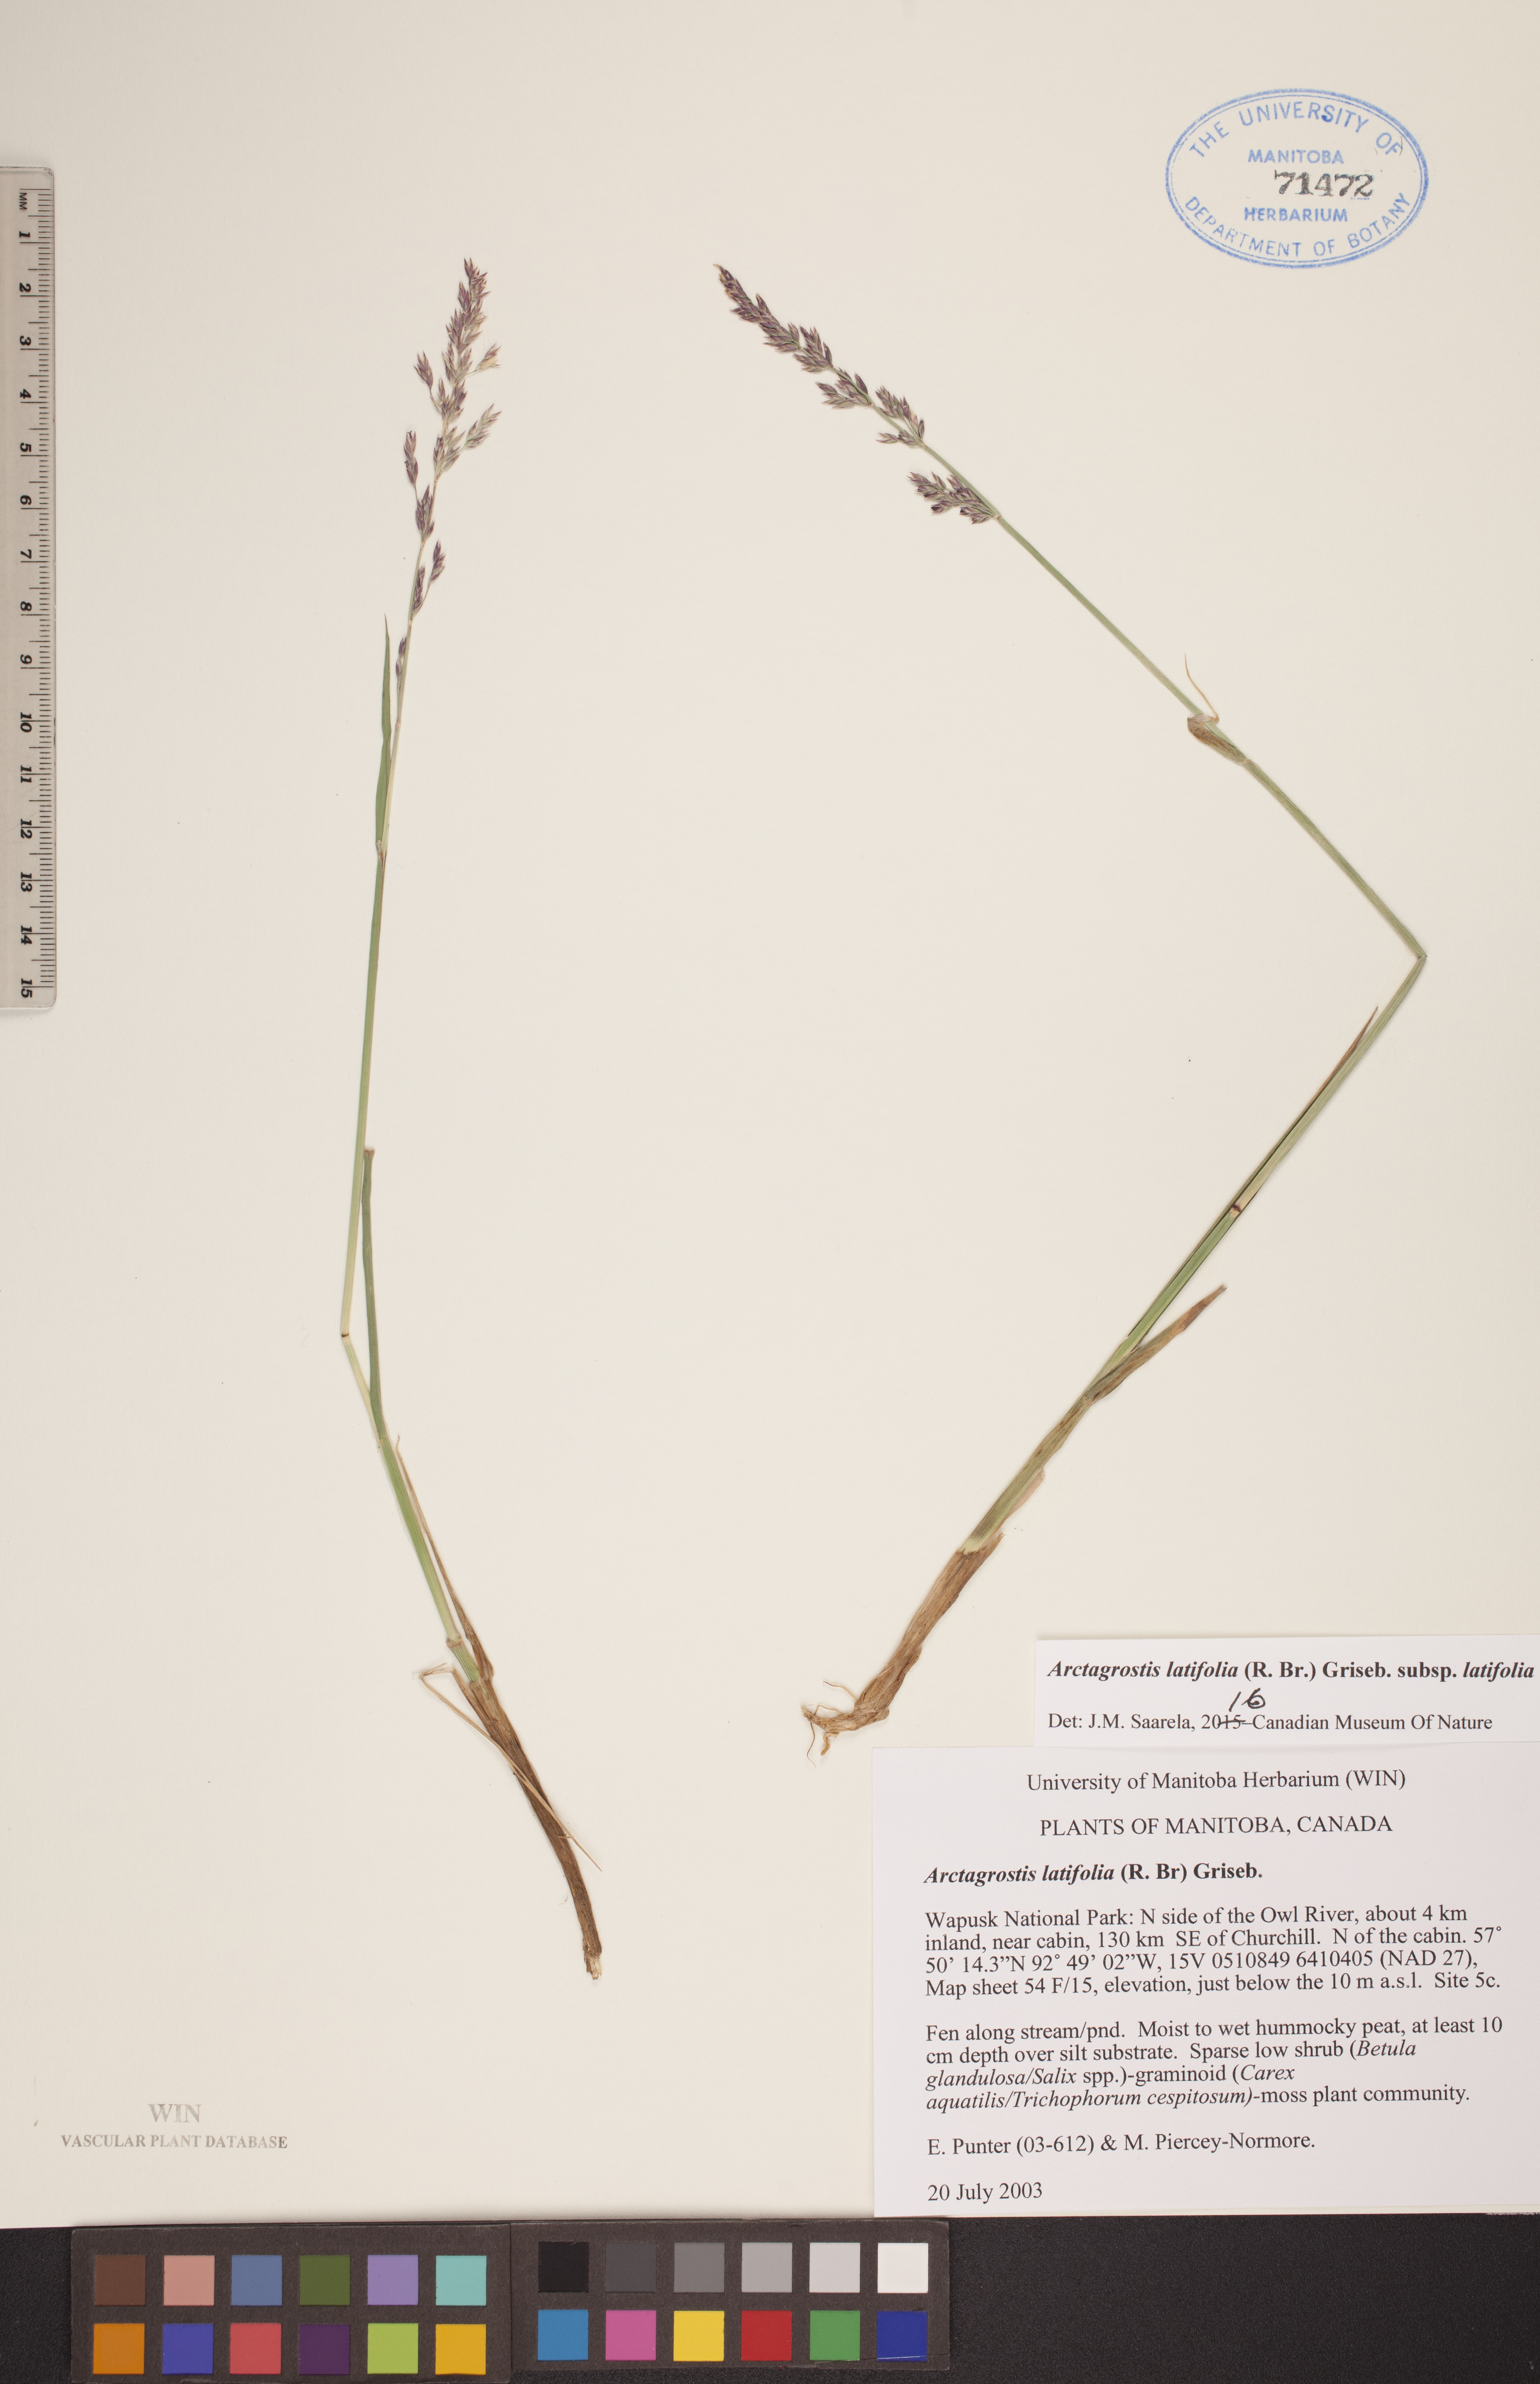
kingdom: Plantae
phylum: Tracheophyta
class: Liliopsida
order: Poales
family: Poaceae
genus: Arctagrostis
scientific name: Arctagrostis latifolia
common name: Arctic grass
